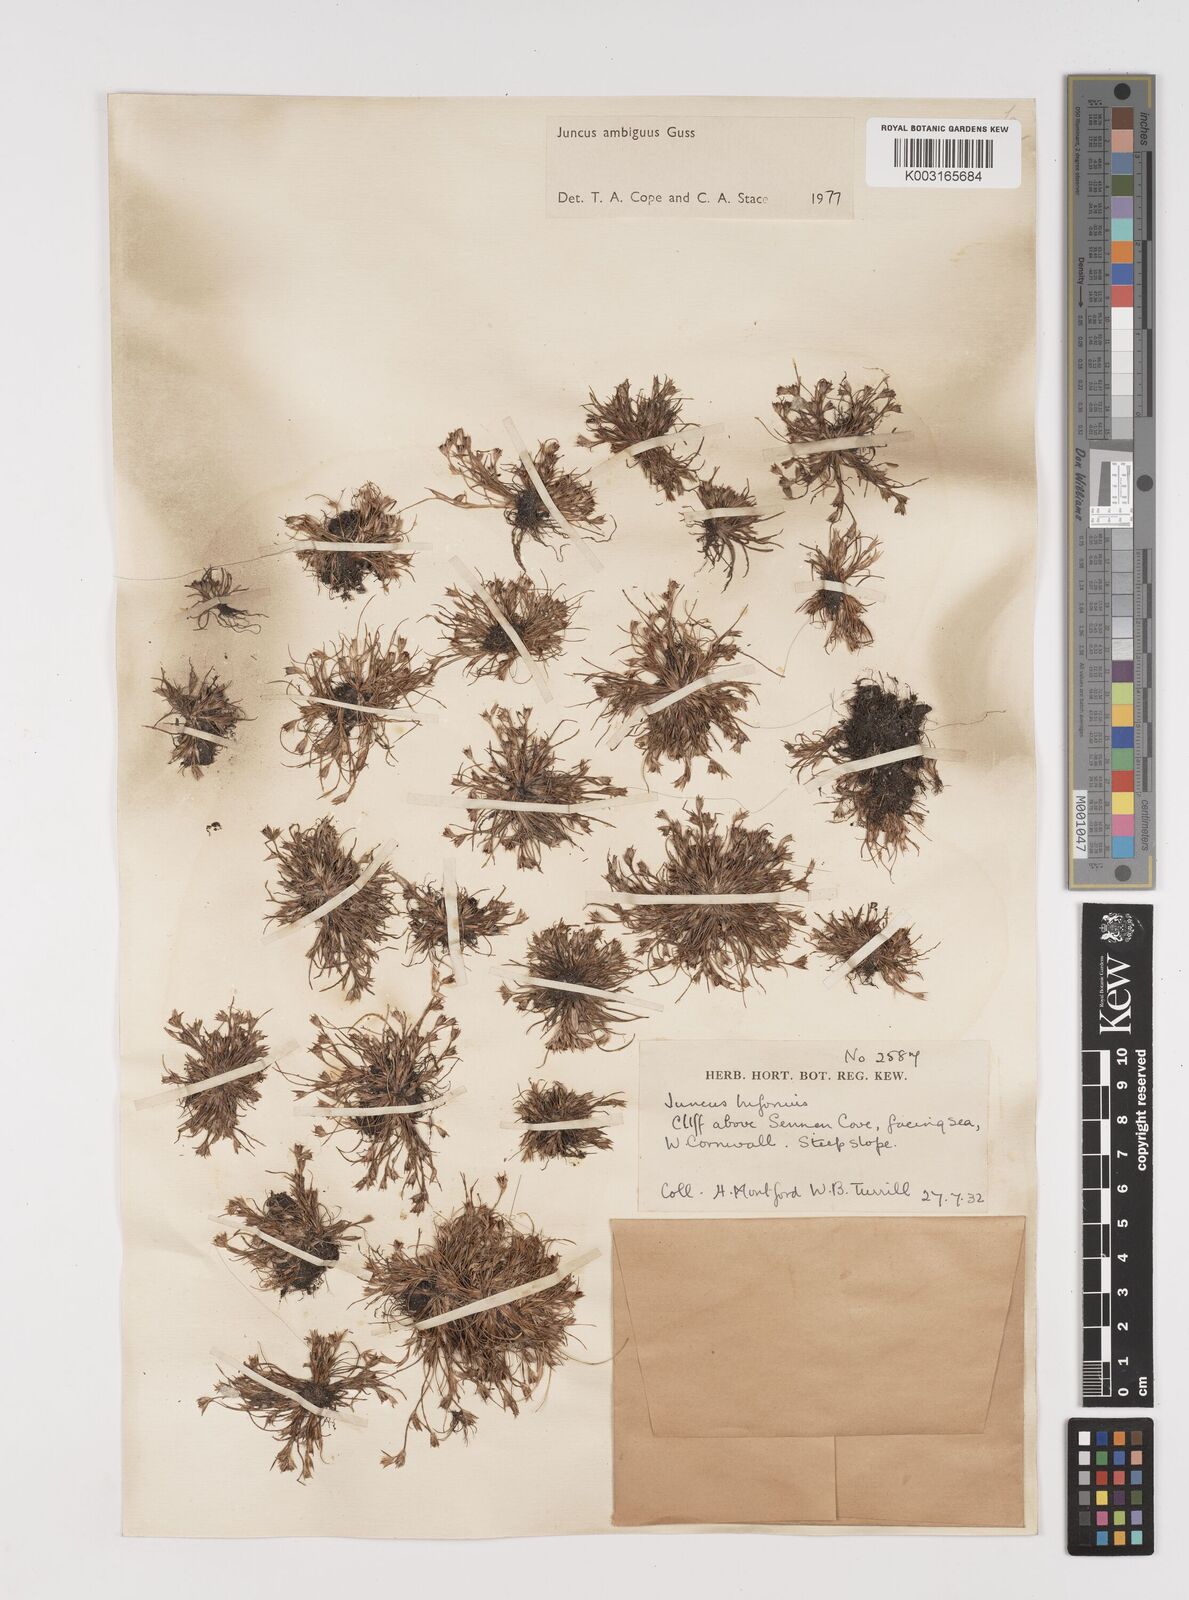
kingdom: Plantae
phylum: Tracheophyta
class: Liliopsida
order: Poales
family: Juncaceae
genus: Juncus
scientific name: Juncus bufonius
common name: Toad rush
